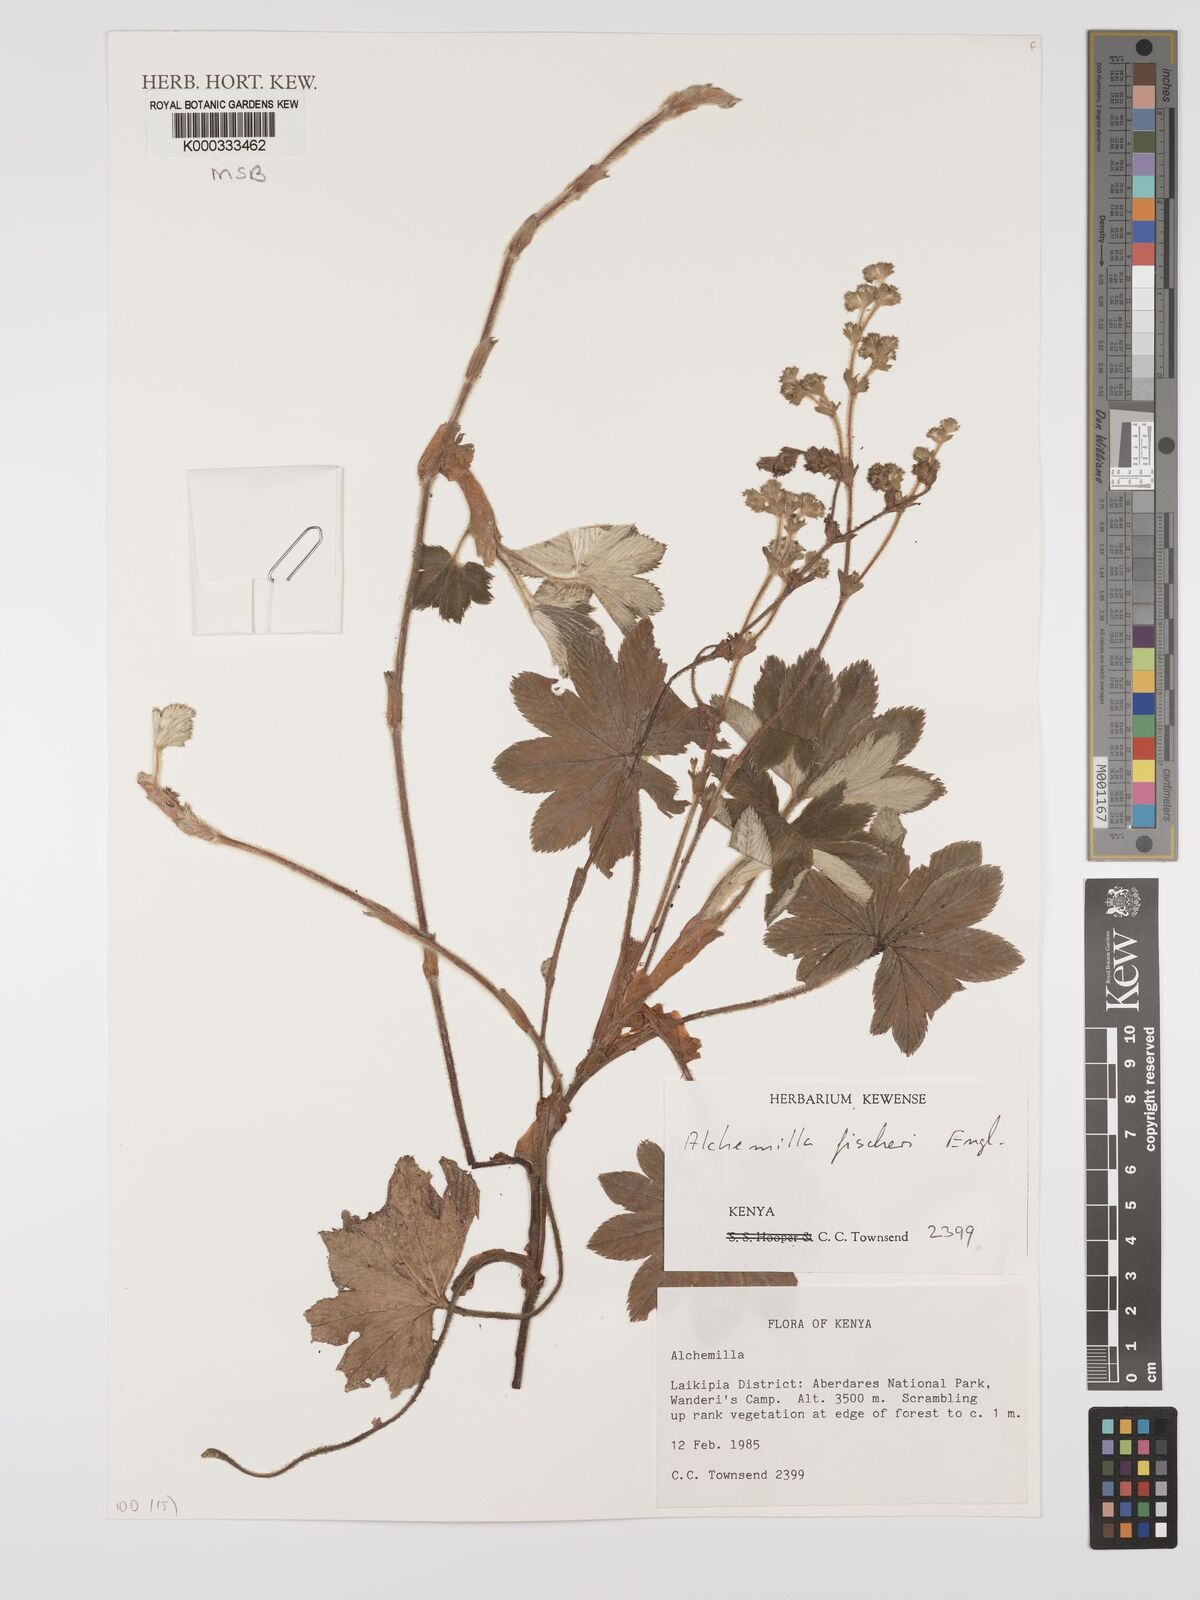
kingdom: Plantae
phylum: Tracheophyta
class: Magnoliopsida
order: Rosales
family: Rosaceae
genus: Alchemilla
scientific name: Alchemilla fischeri
